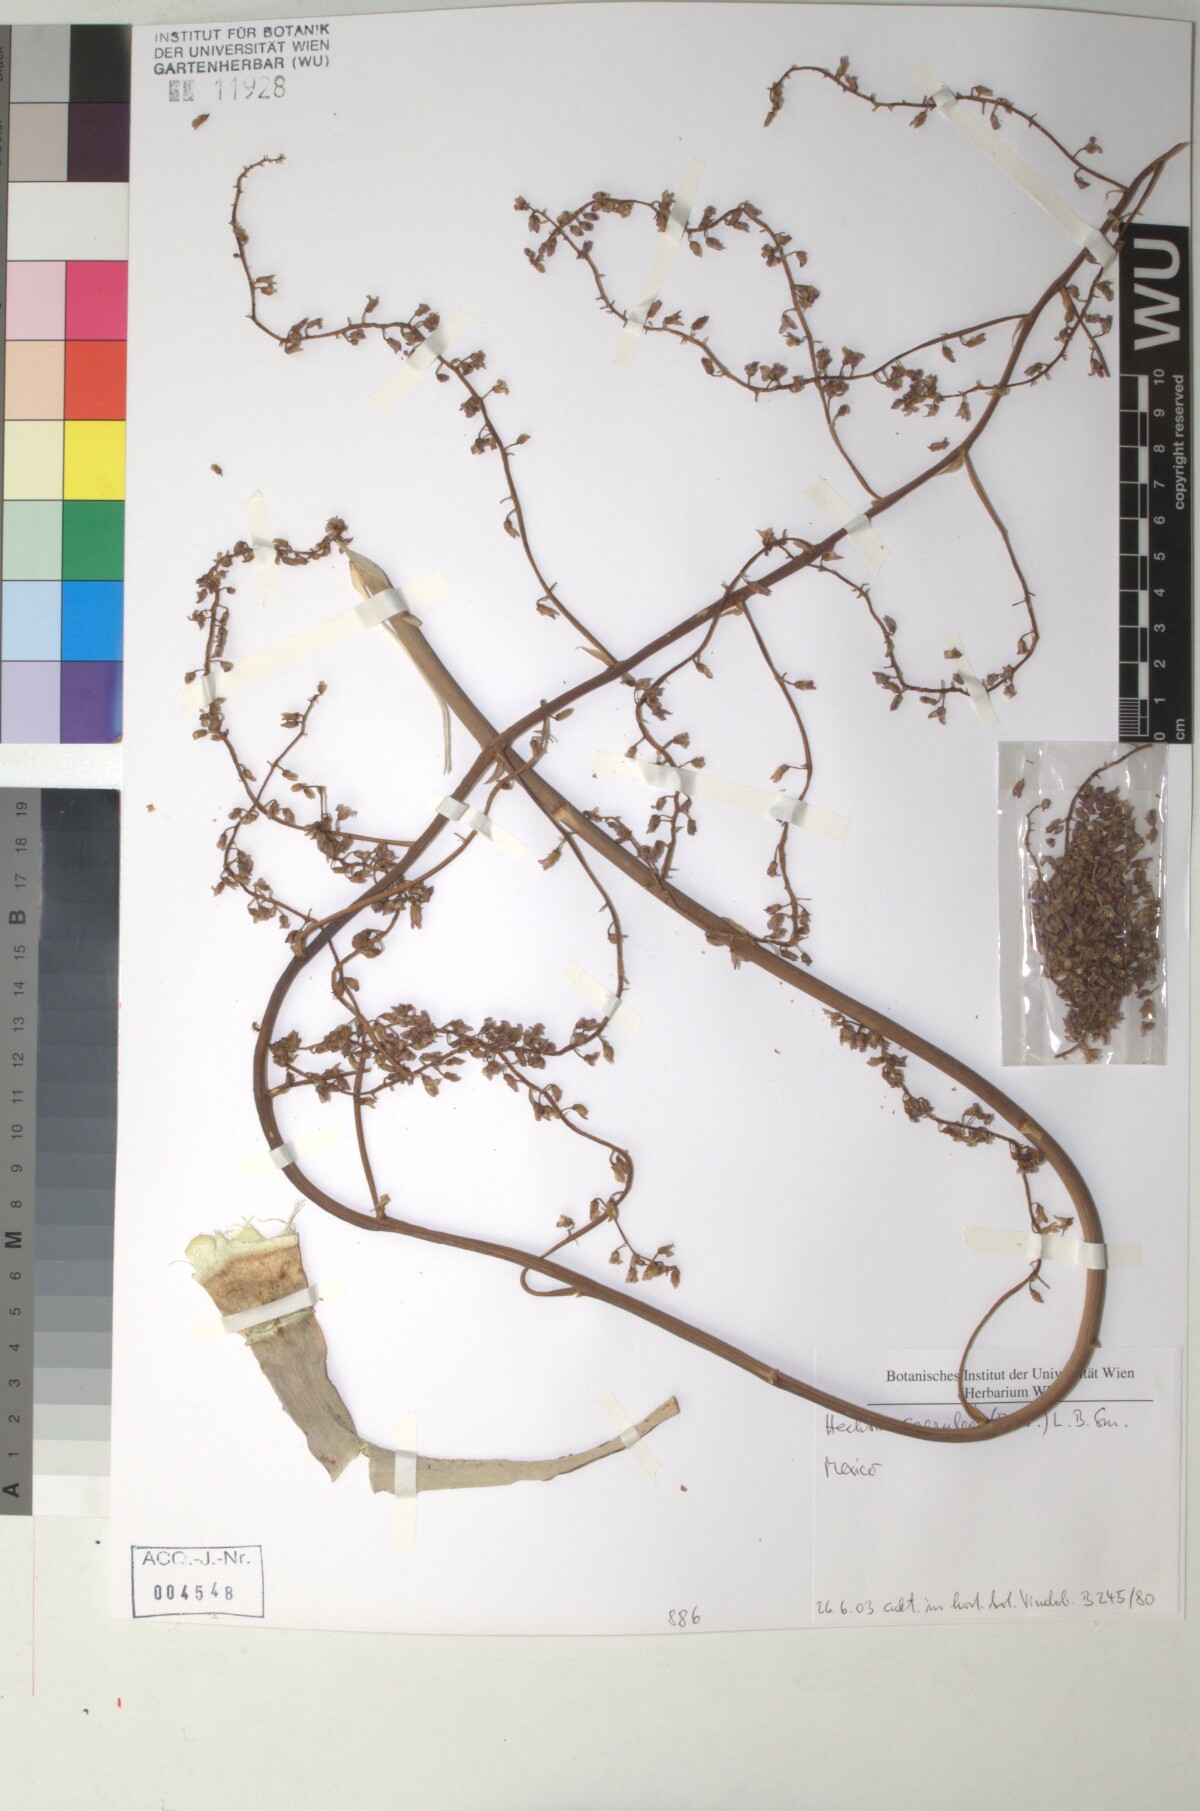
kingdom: Plantae
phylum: Tracheophyta
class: Liliopsida
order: Poales
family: Bromeliaceae
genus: Hechtia
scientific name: Hechtia
